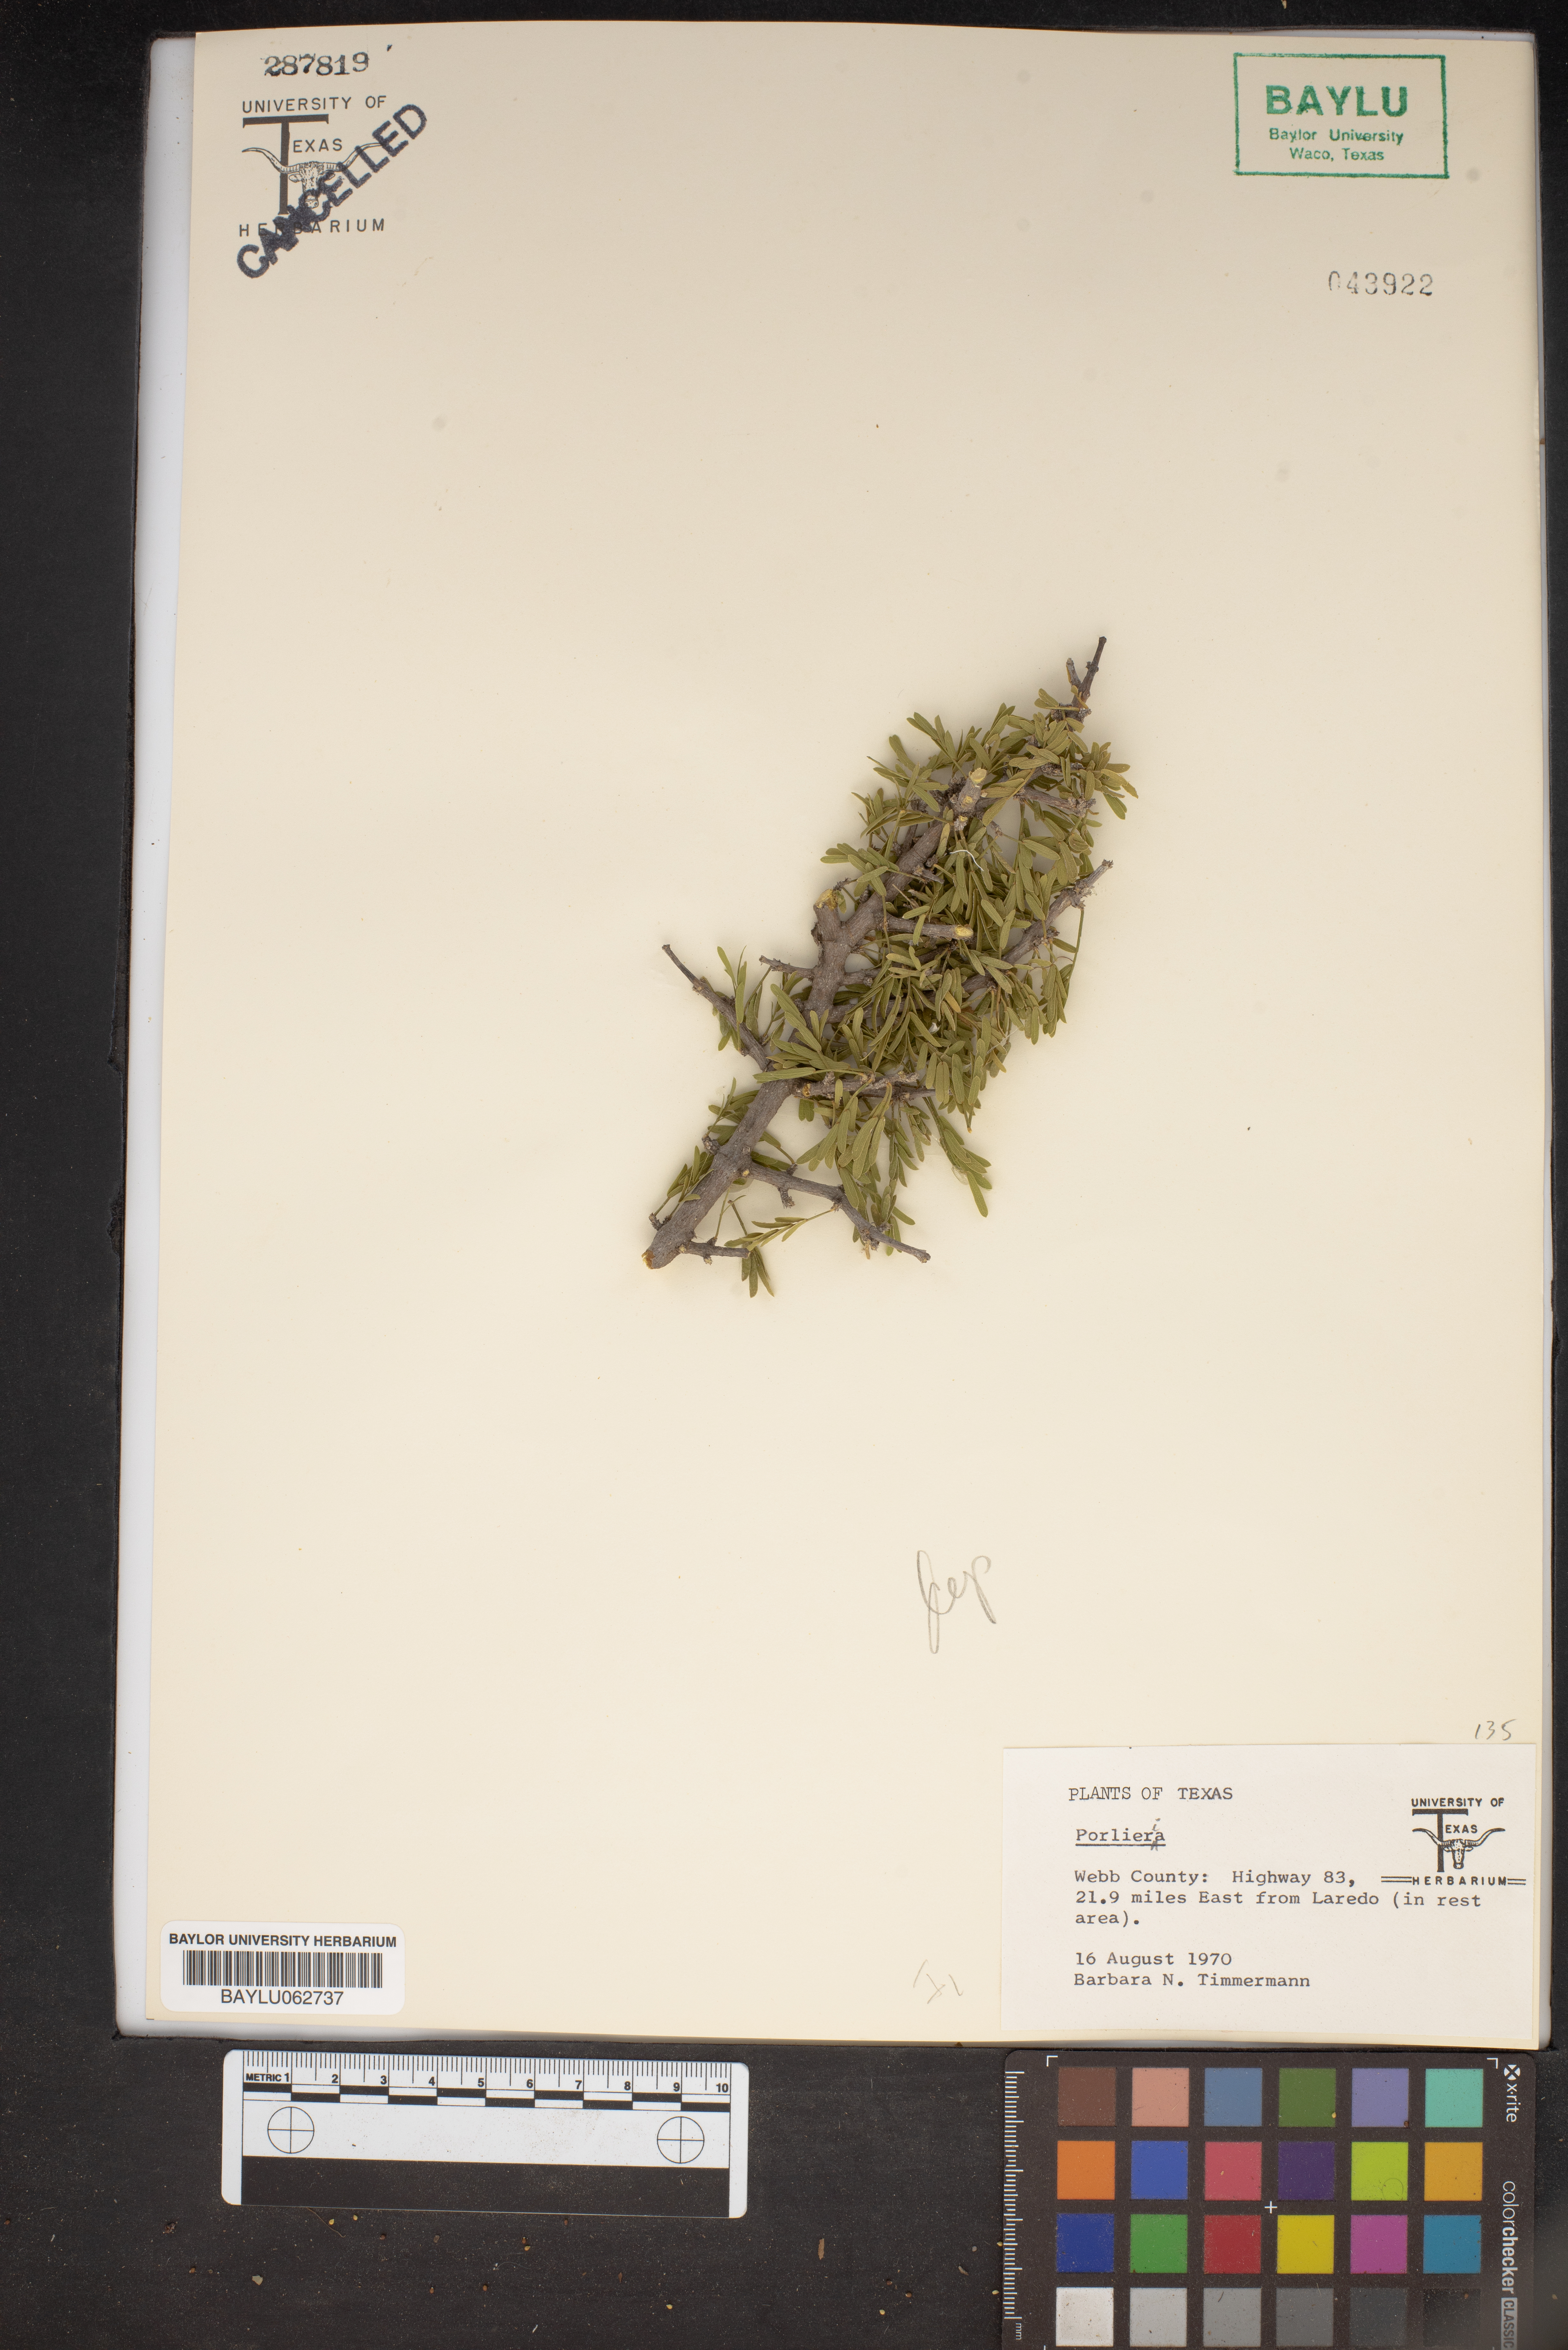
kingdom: Plantae
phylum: Tracheophyta
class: Magnoliopsida
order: Zygophyllales
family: Zygophyllaceae
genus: Porlieria
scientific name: Porlieria
